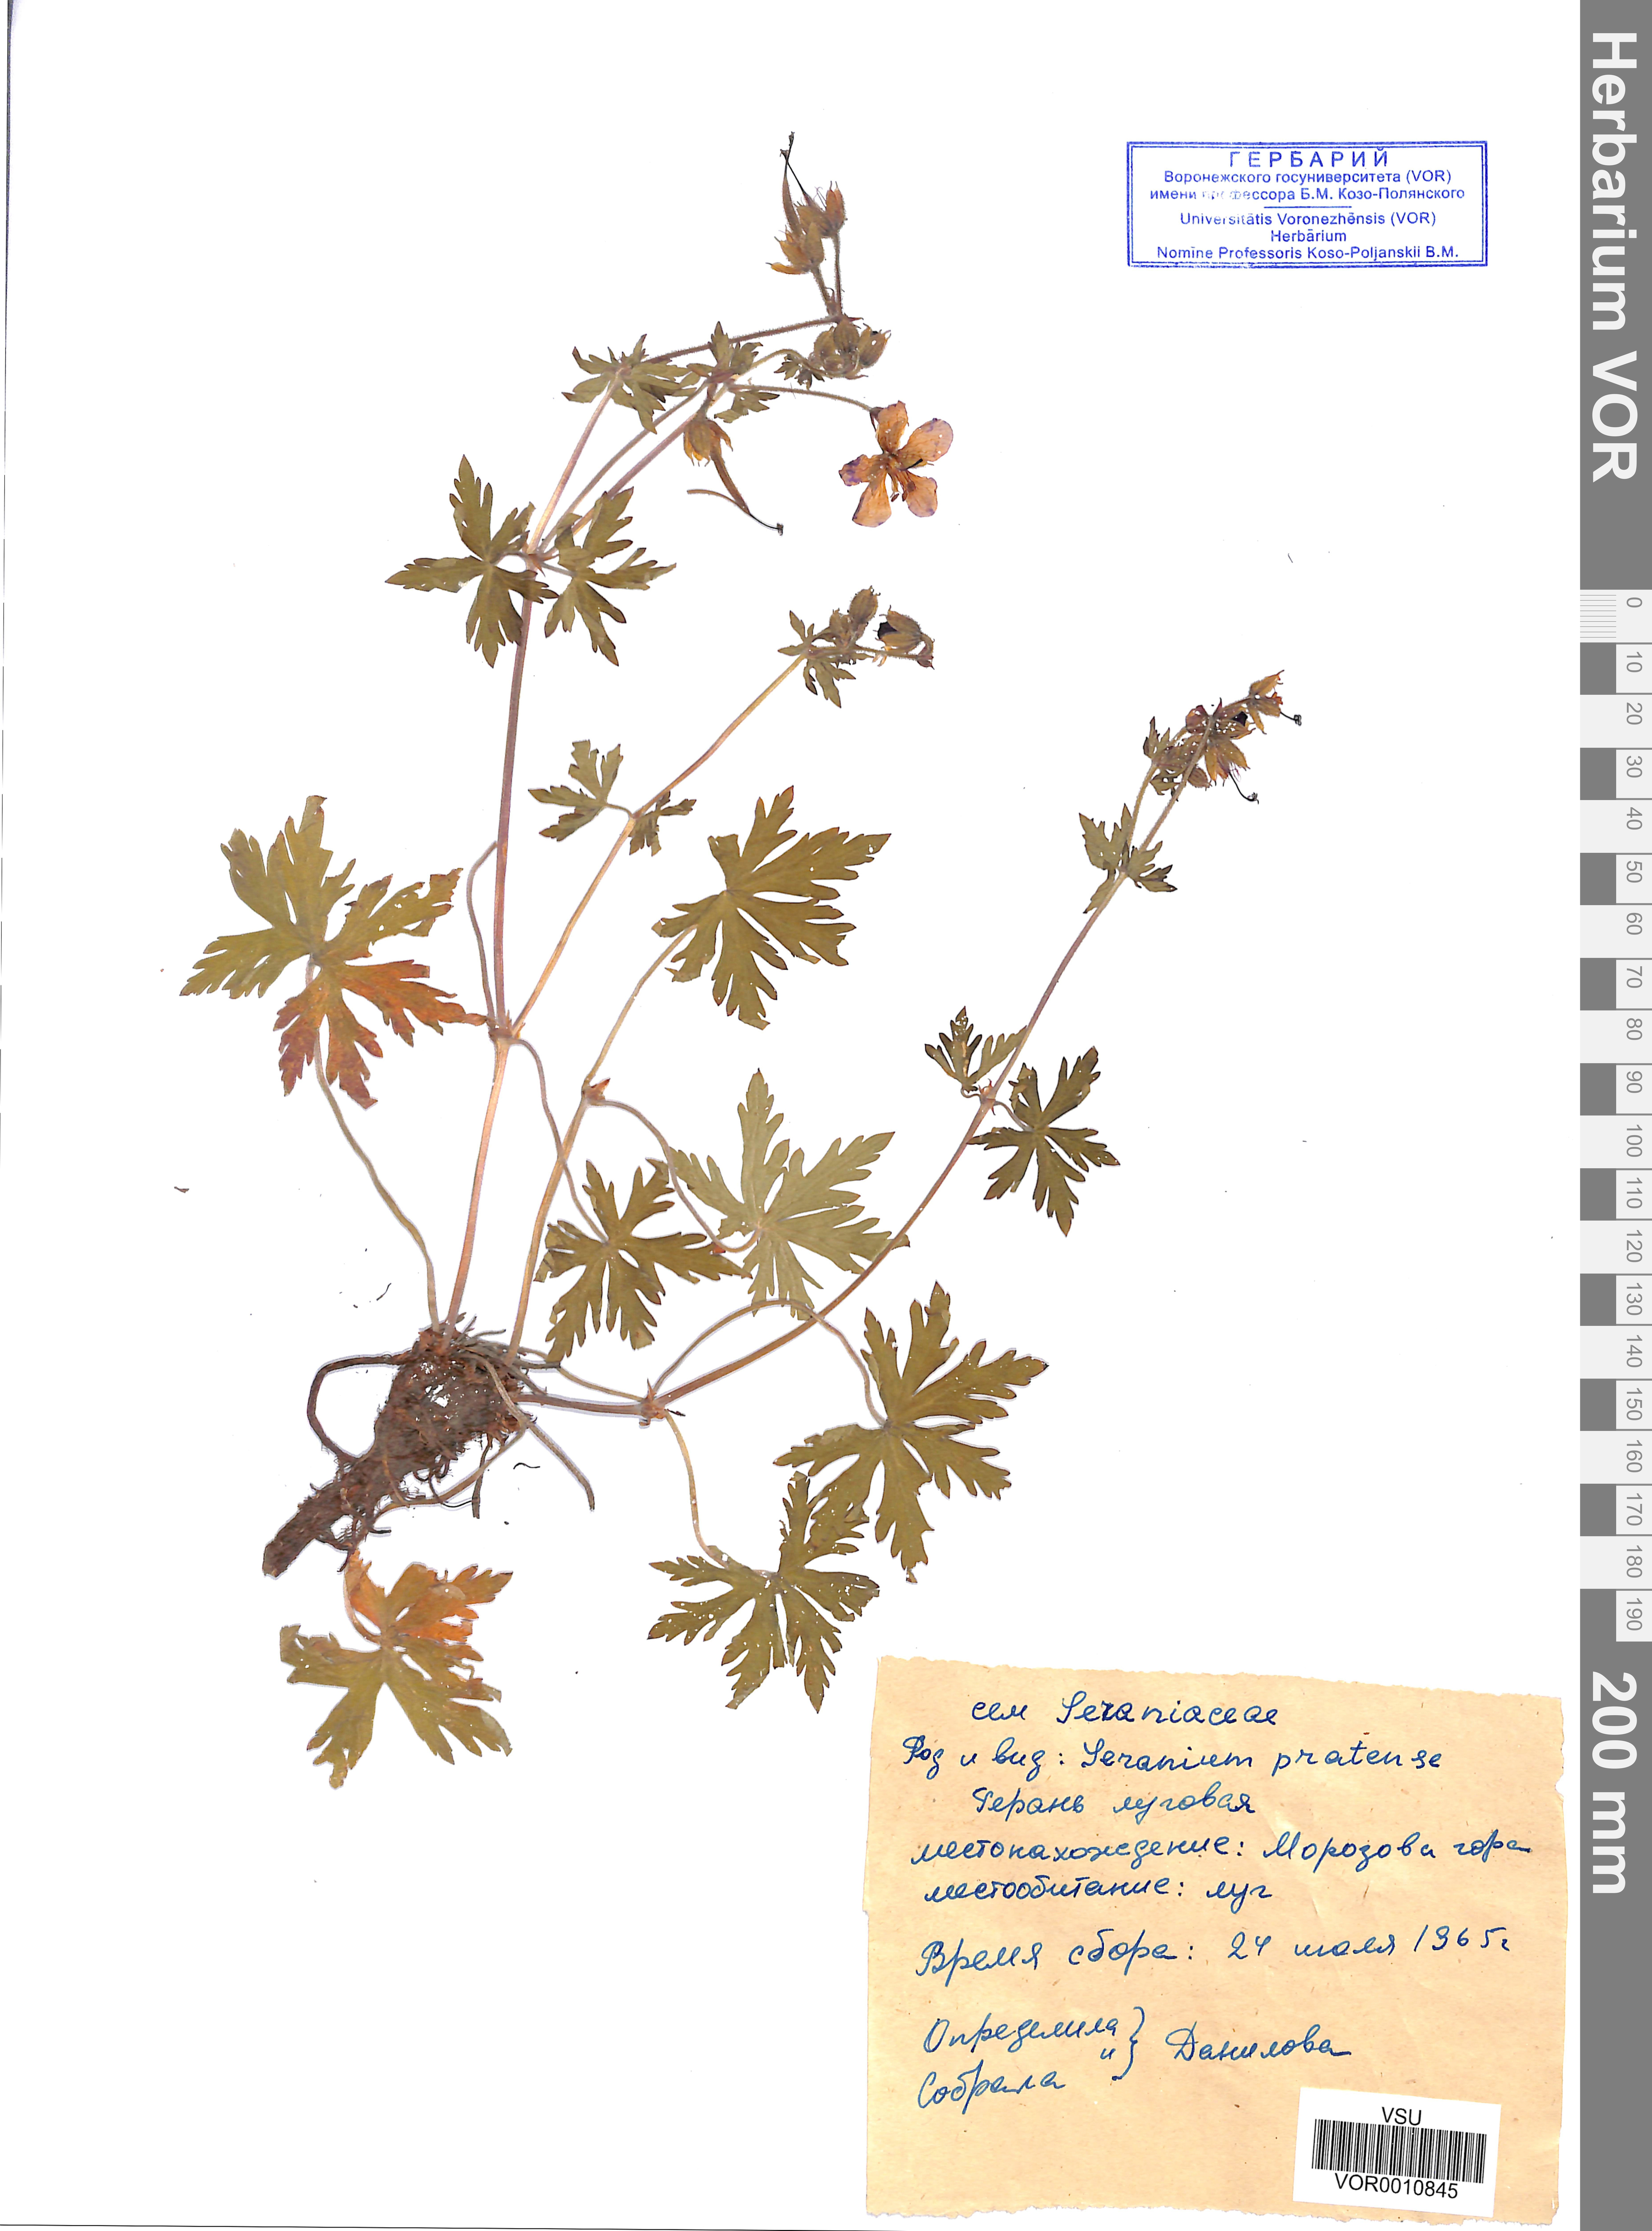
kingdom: Plantae
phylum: Tracheophyta
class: Magnoliopsida
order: Geraniales
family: Geraniaceae
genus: Geranium
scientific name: Geranium pratense
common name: Meadow crane's-bill
